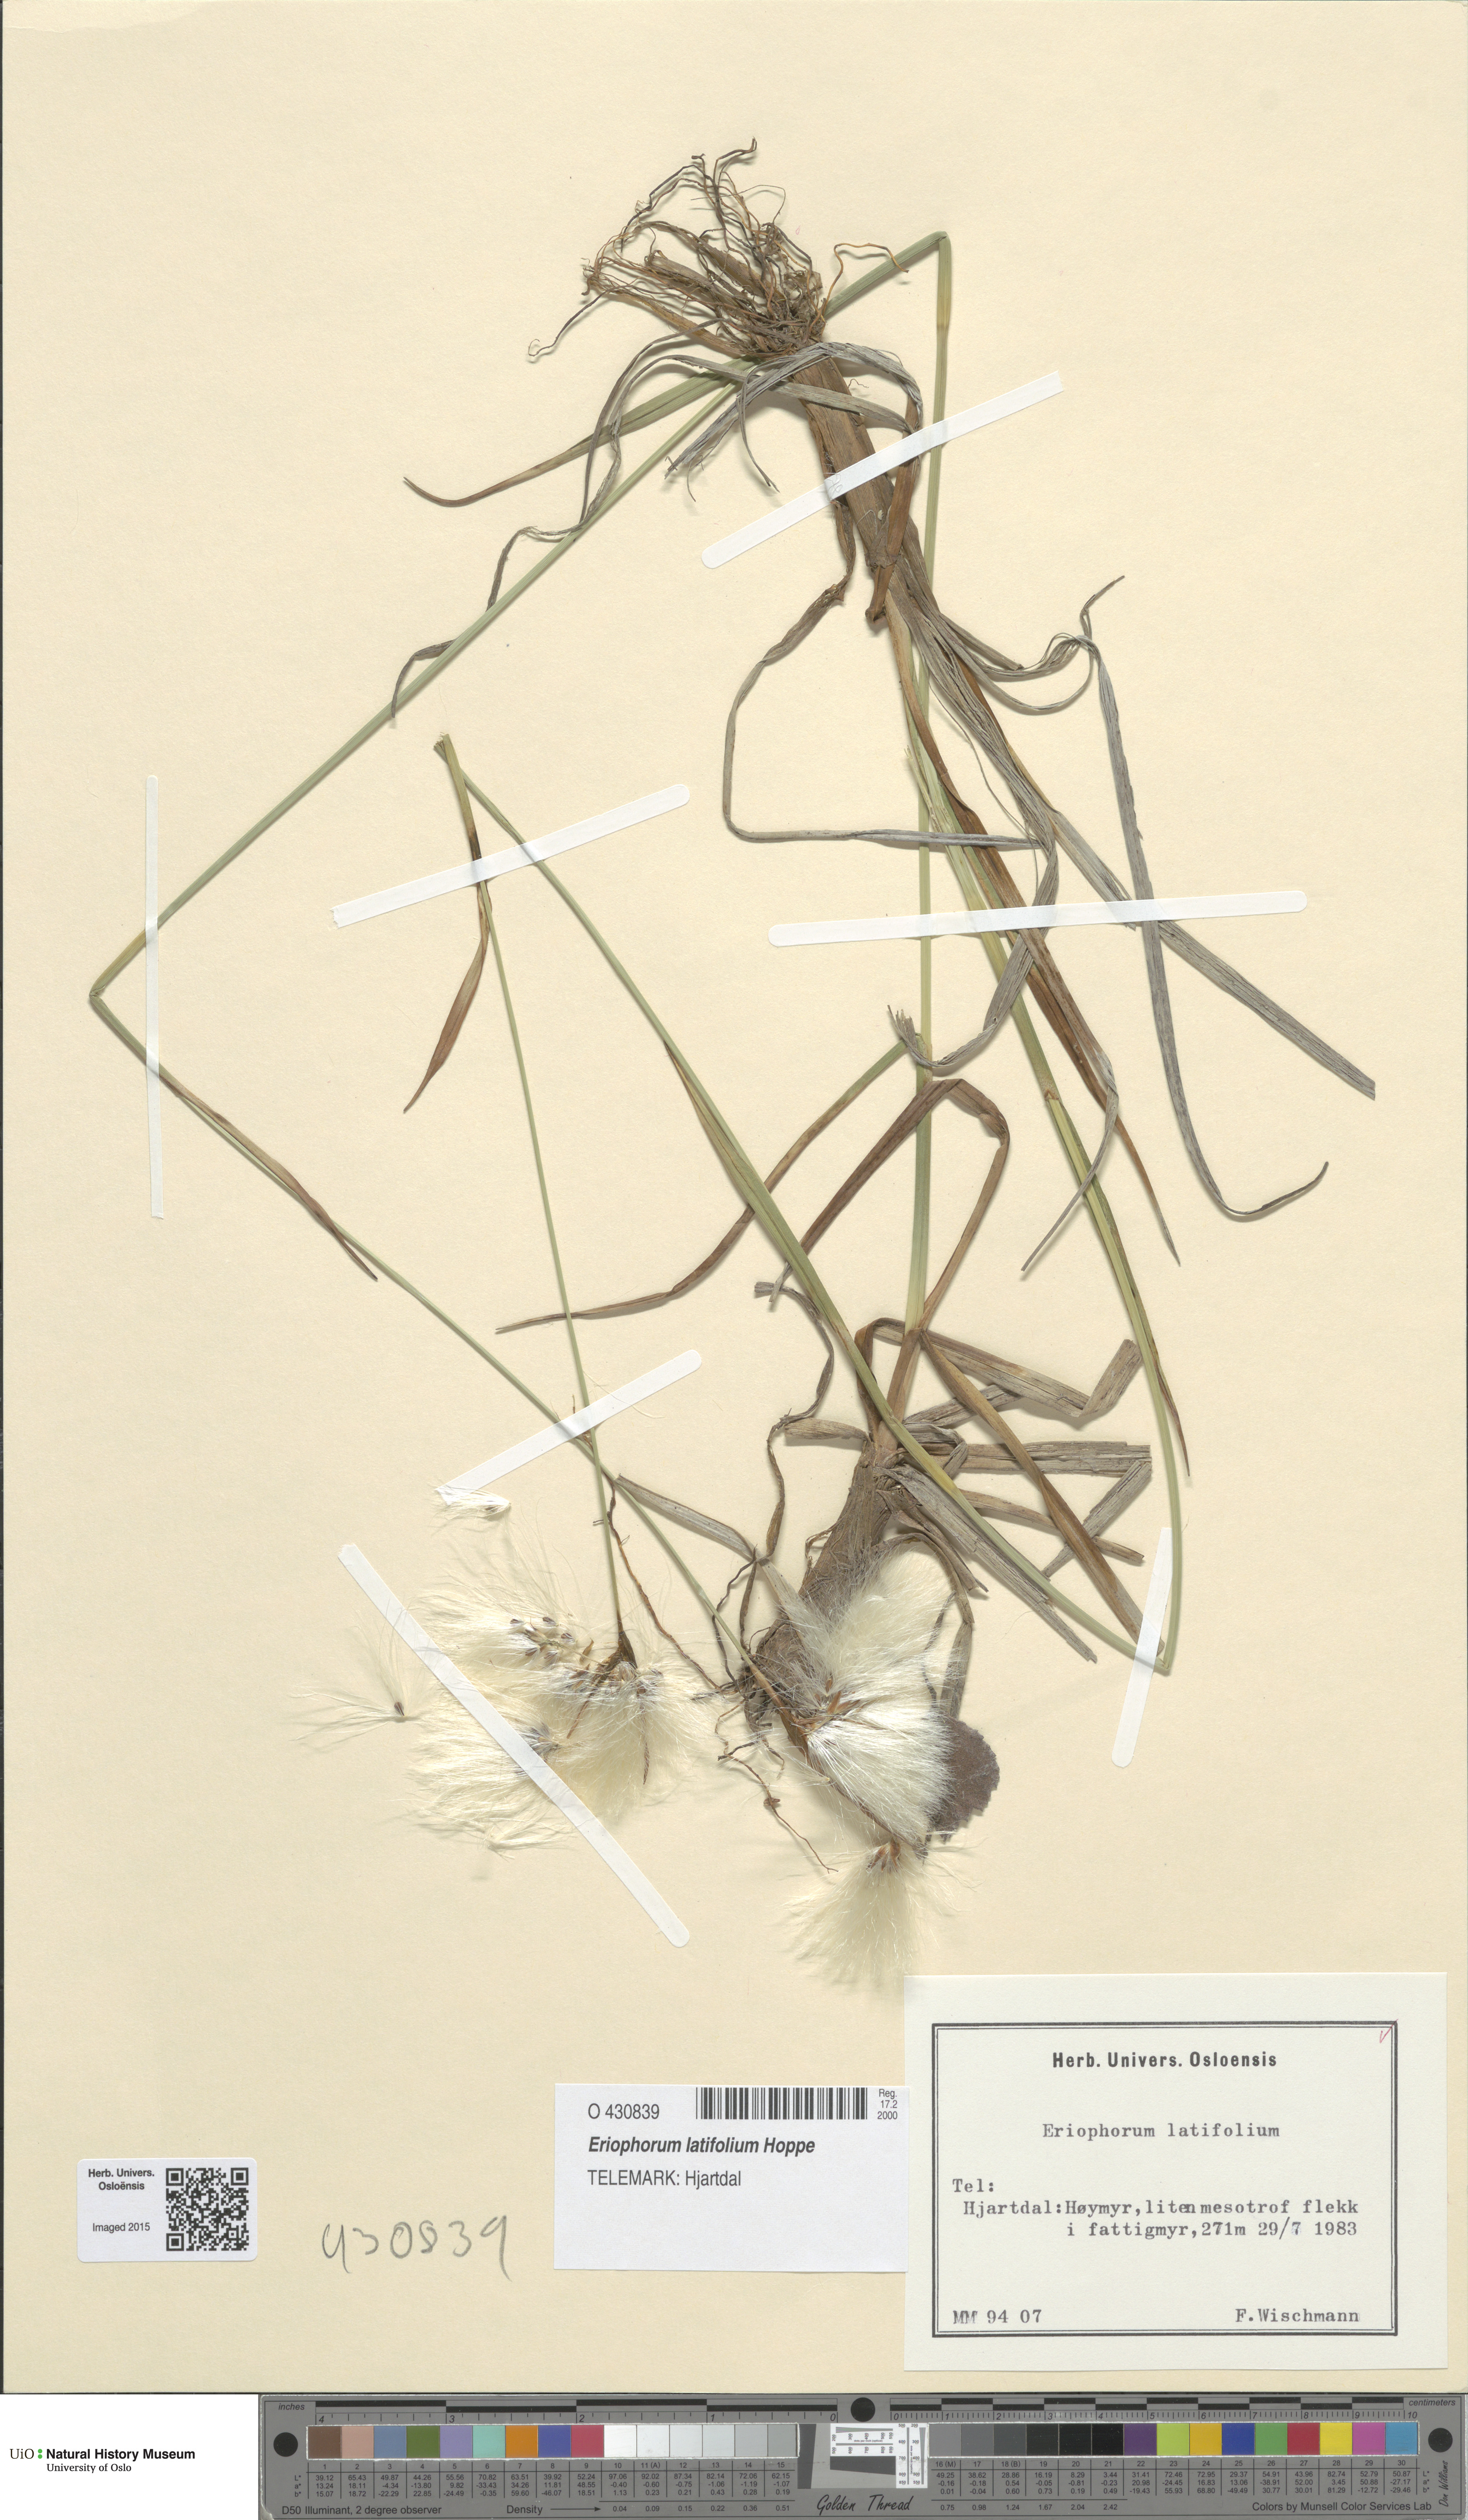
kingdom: Plantae
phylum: Tracheophyta
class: Liliopsida
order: Poales
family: Cyperaceae
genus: Eriophorum
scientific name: Eriophorum latifolium
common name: Broad-leaved cottongrass
